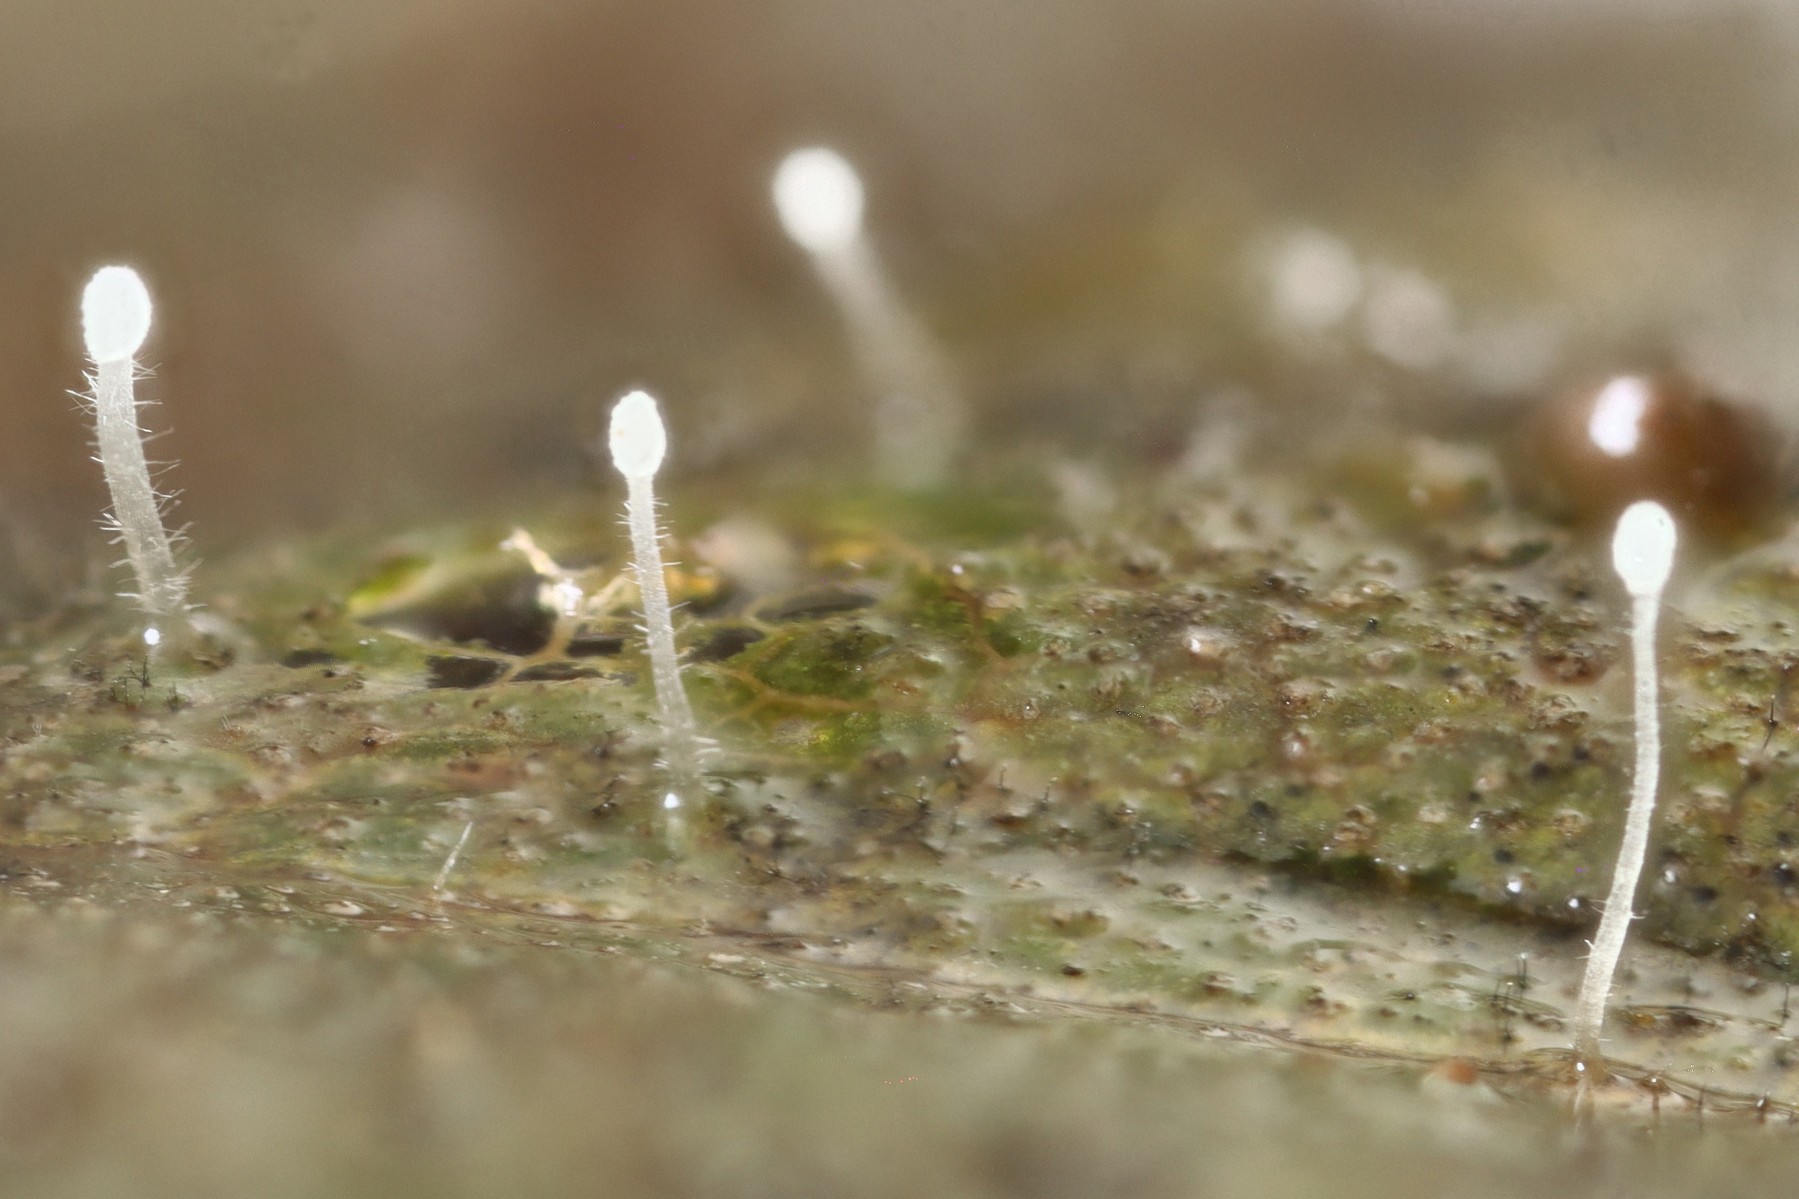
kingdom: Fungi
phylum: Basidiomycota
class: Agaricomycetes
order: Agaricales
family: Typhulaceae
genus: Typhula
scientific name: Typhula setipes
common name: liden trådkølle
